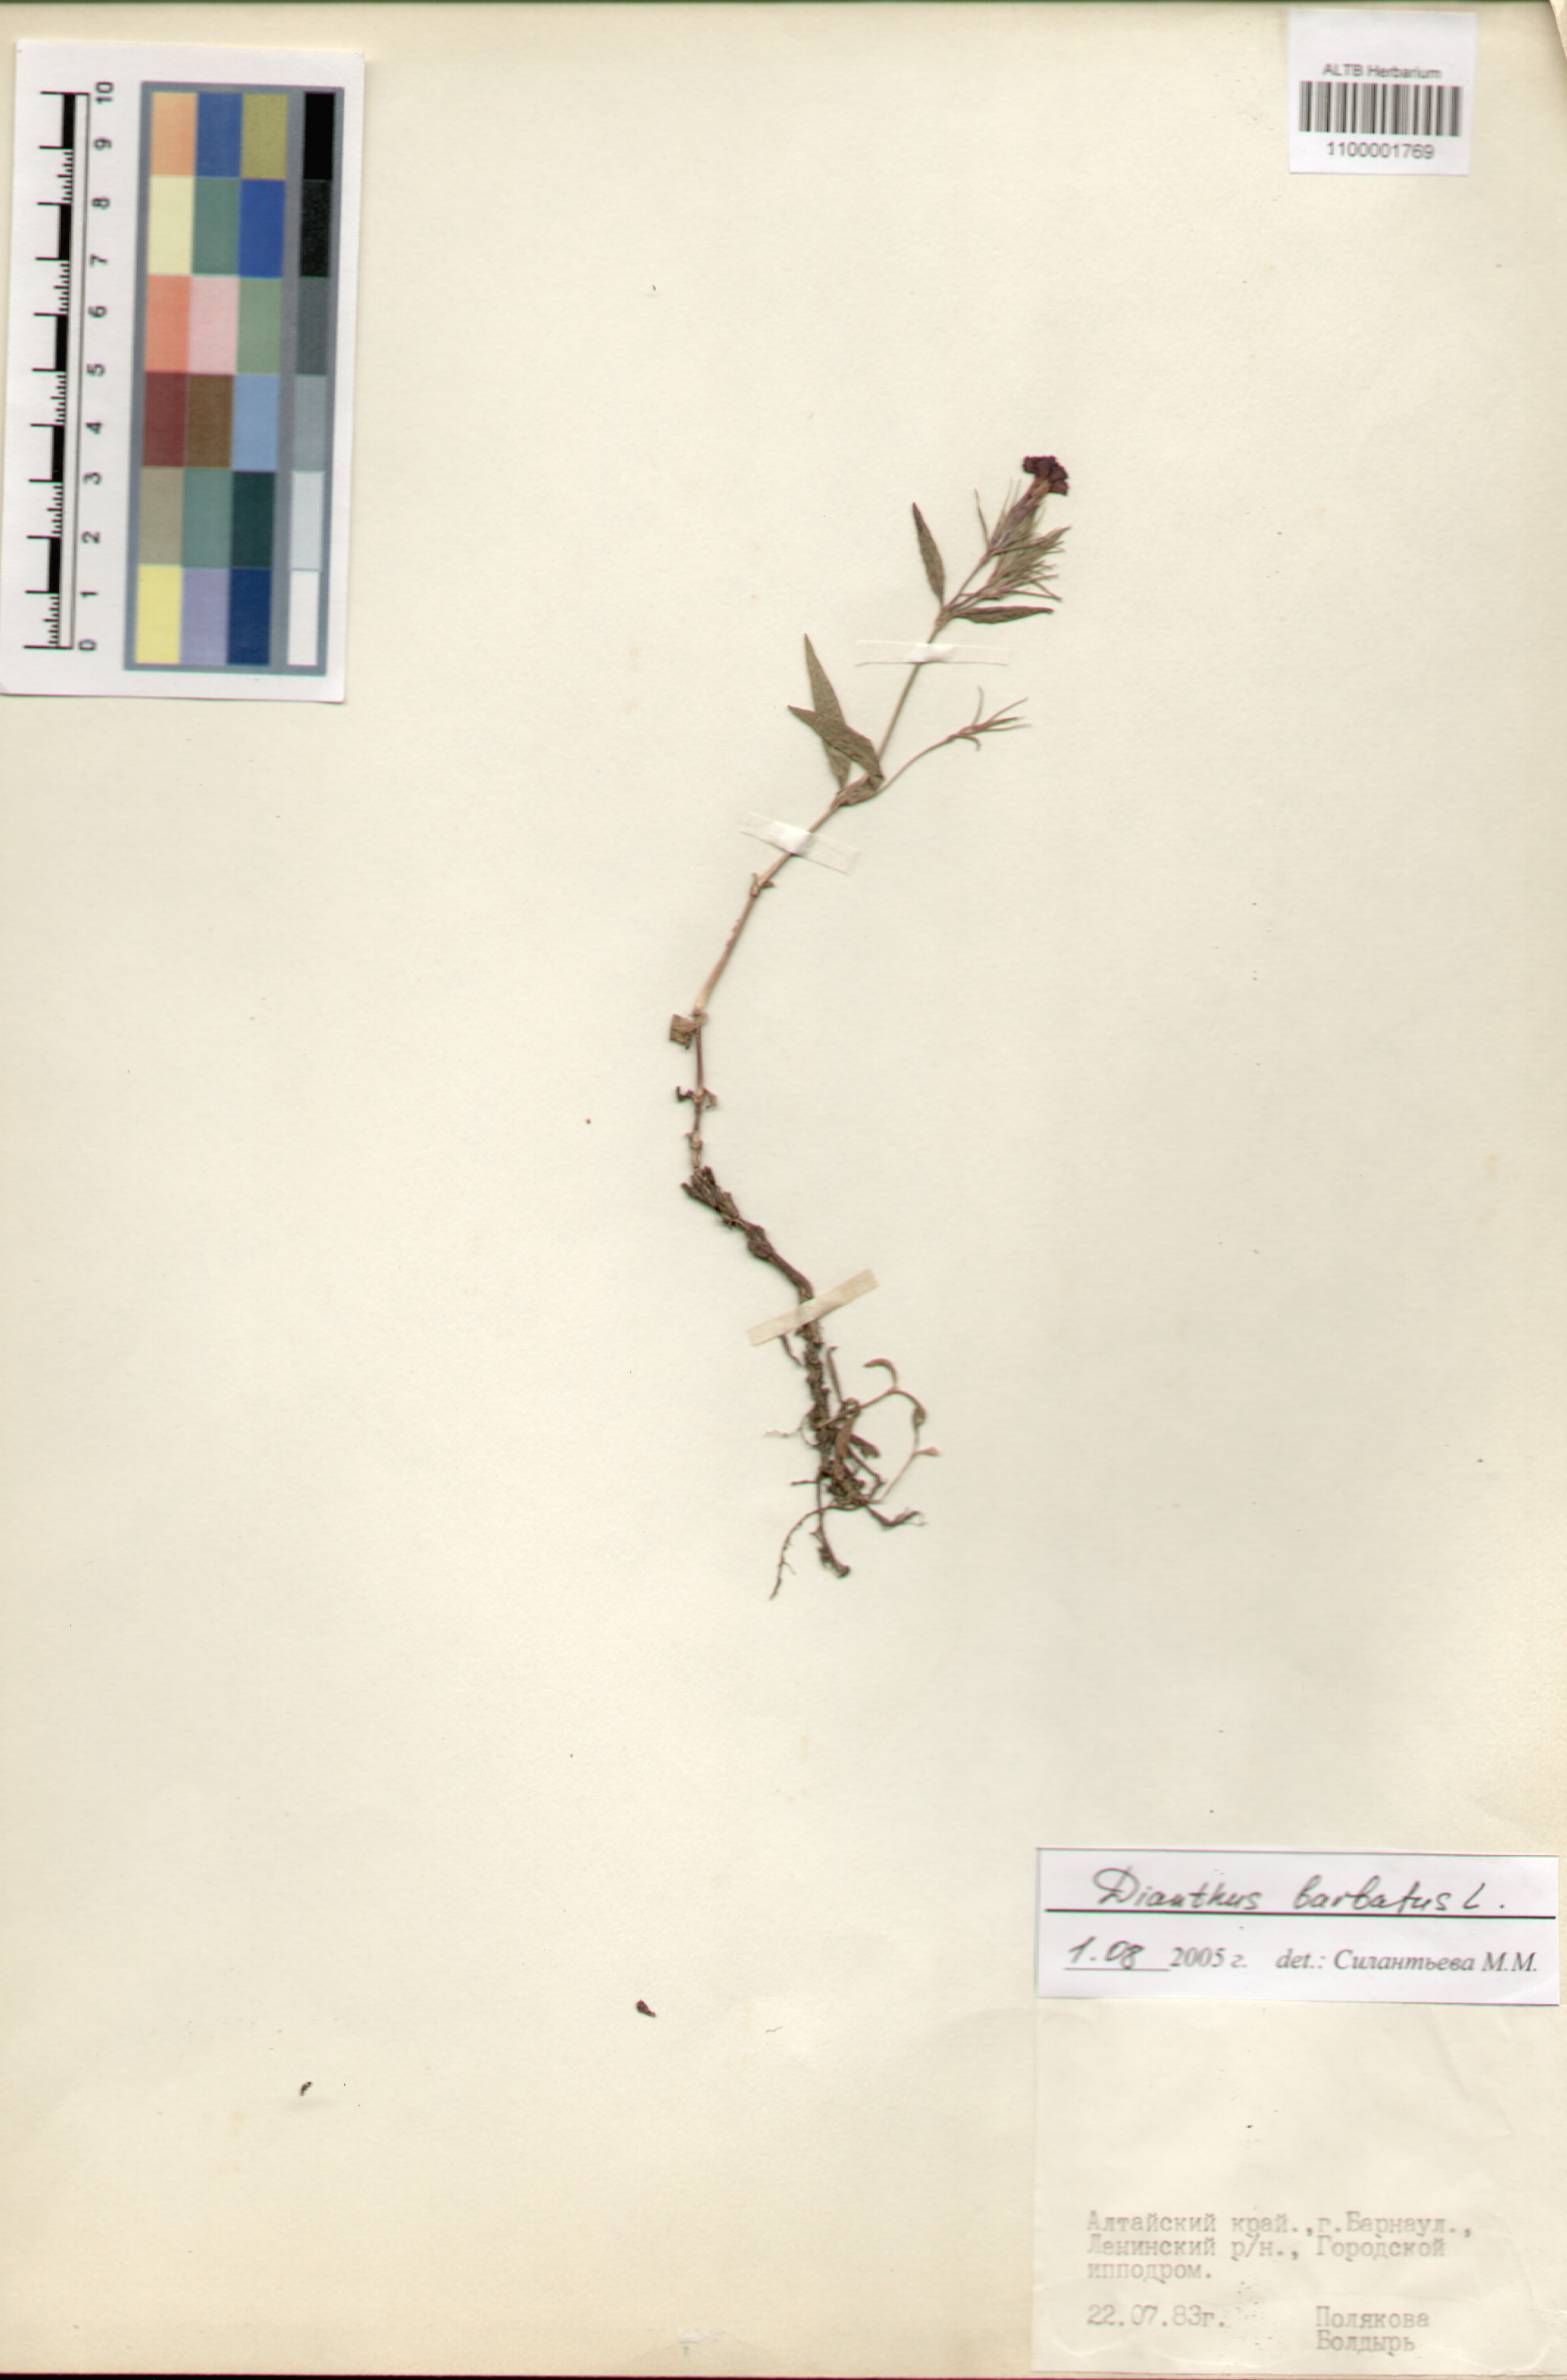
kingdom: Plantae
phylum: Tracheophyta
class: Magnoliopsida
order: Caryophyllales
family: Caryophyllaceae
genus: Dianthus
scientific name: Dianthus barbatus
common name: Sweet-william
